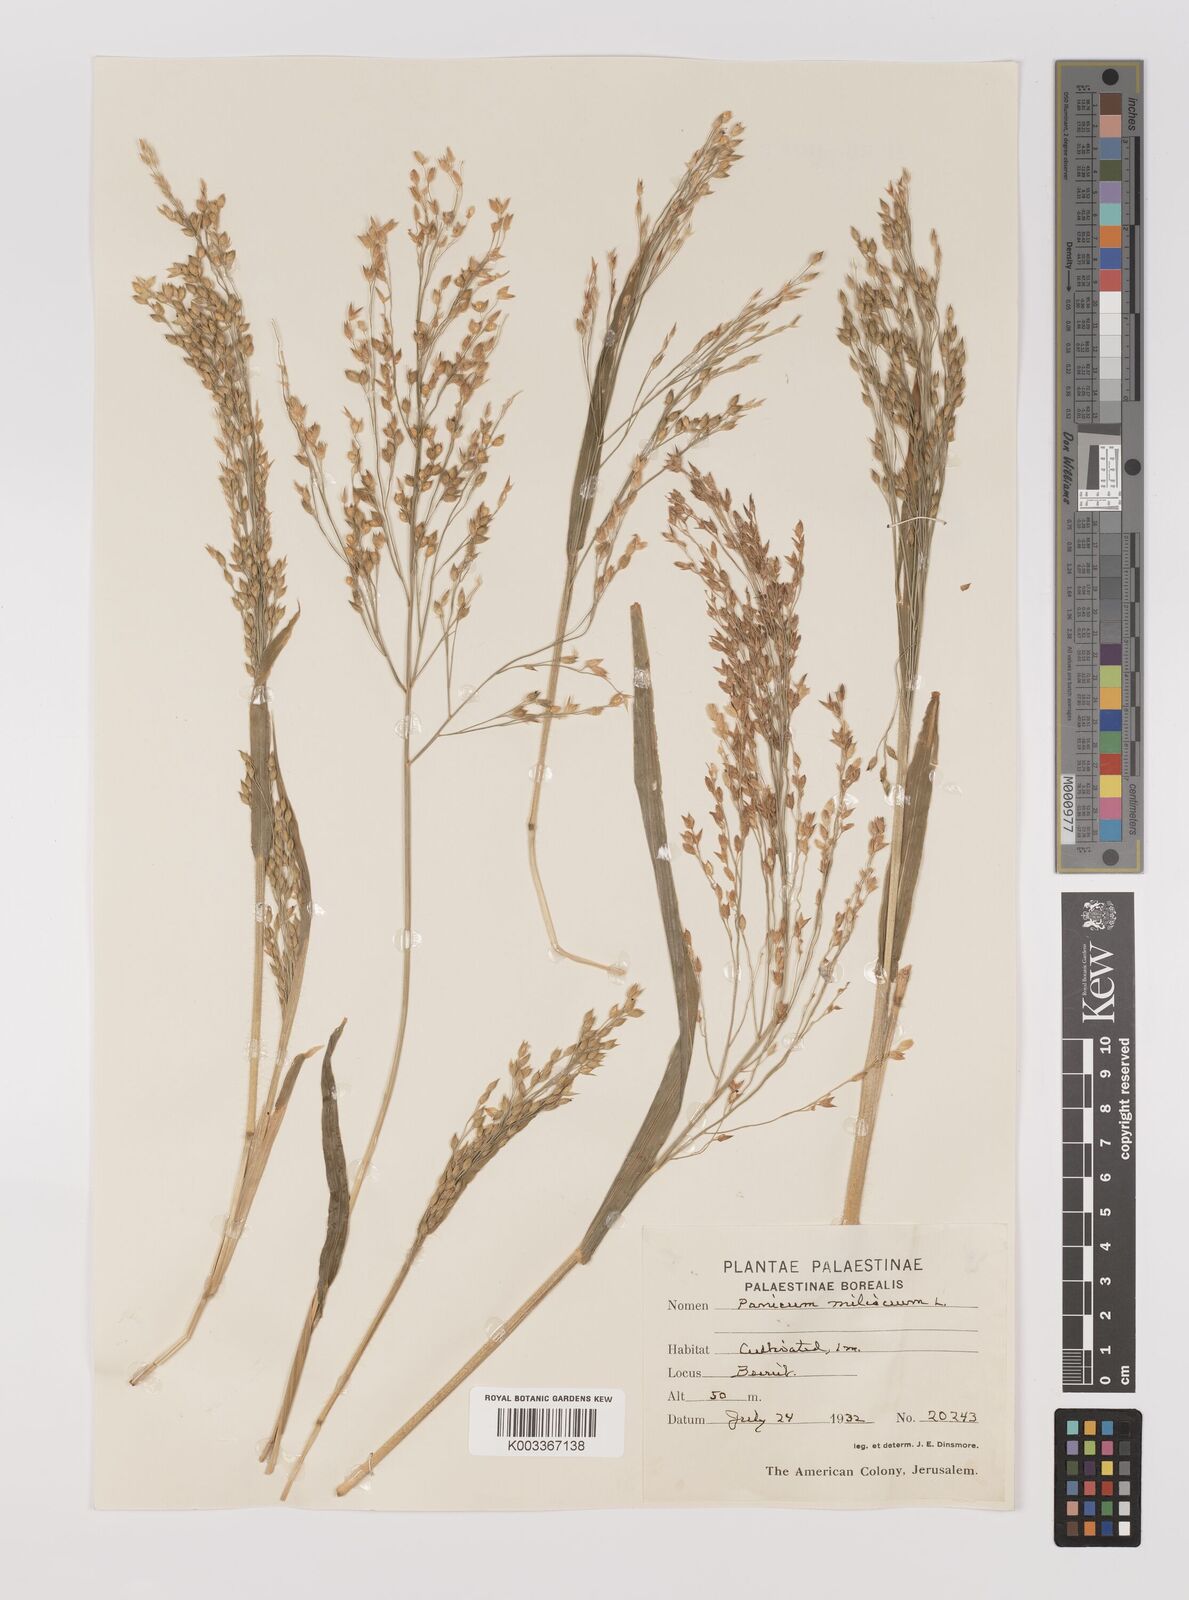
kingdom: Plantae
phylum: Tracheophyta
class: Liliopsida
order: Poales
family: Poaceae
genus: Panicum
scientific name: Panicum miliaceum
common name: Common millet
